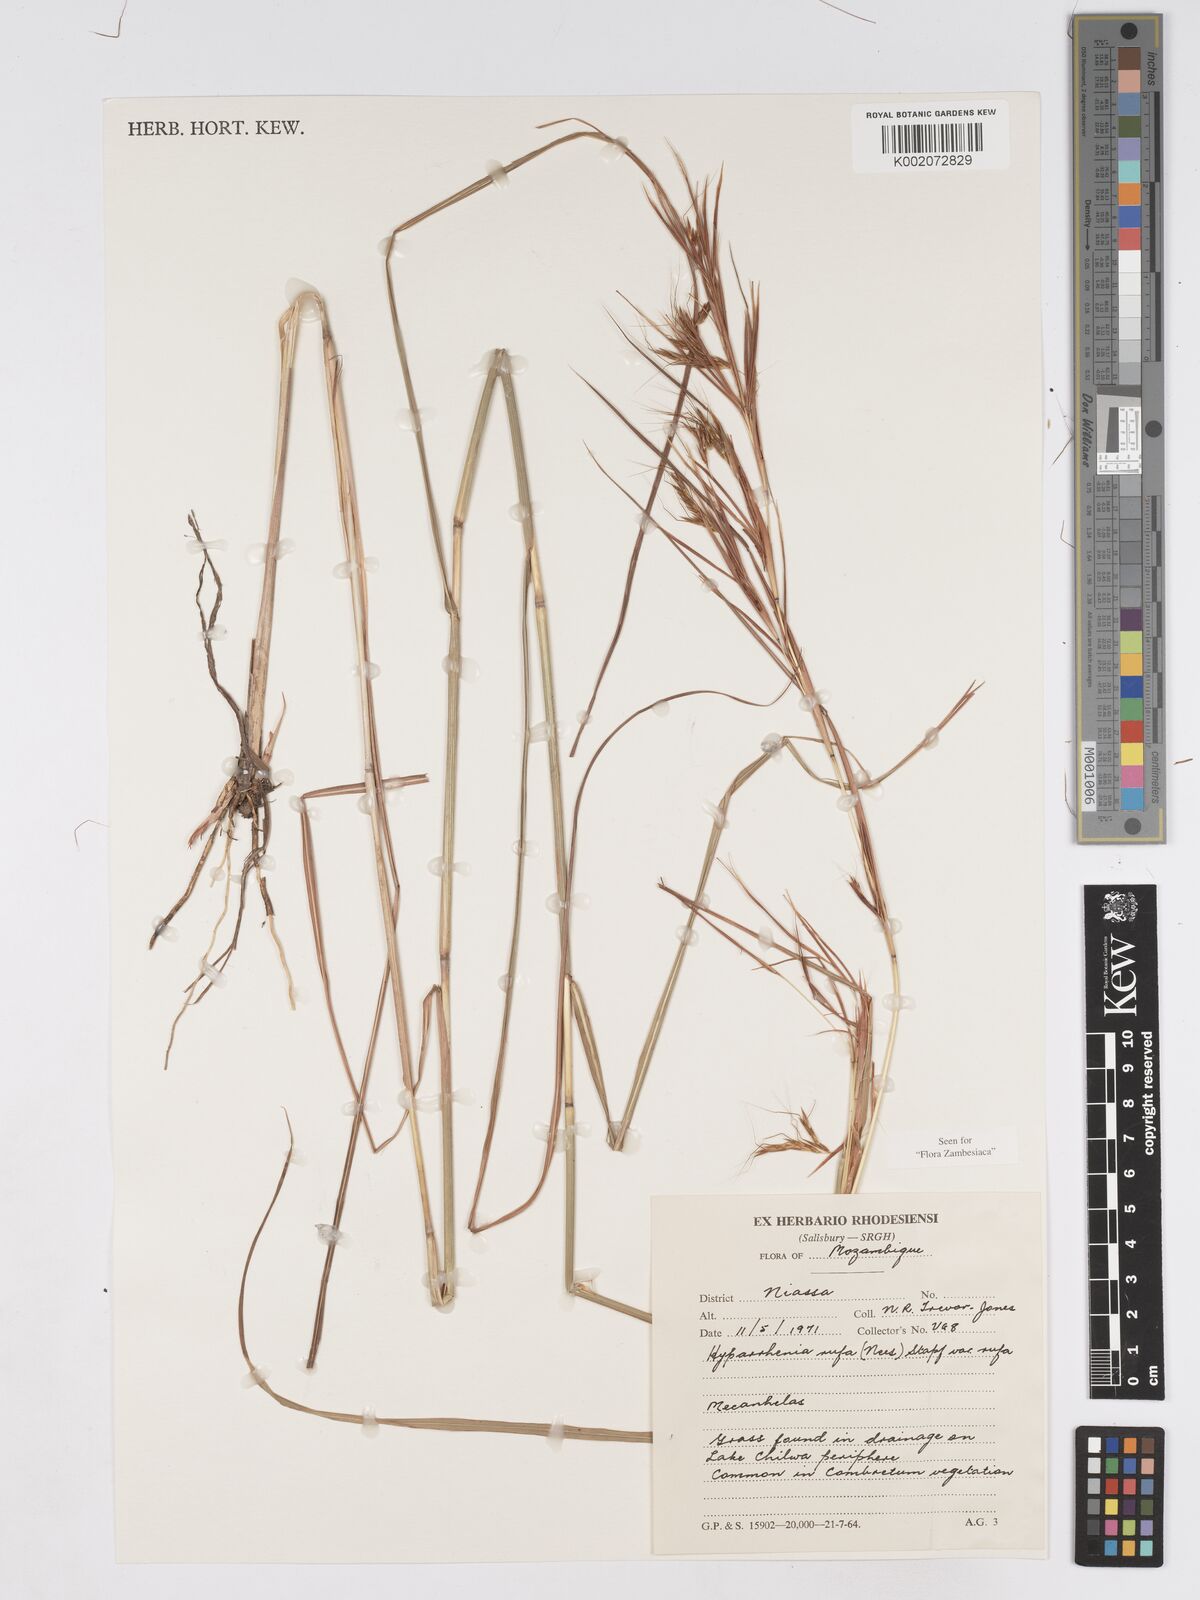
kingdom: Plantae
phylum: Tracheophyta
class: Liliopsida
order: Poales
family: Poaceae
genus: Hyparrhenia
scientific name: Hyparrhenia rufa
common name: Jaraguagrass
